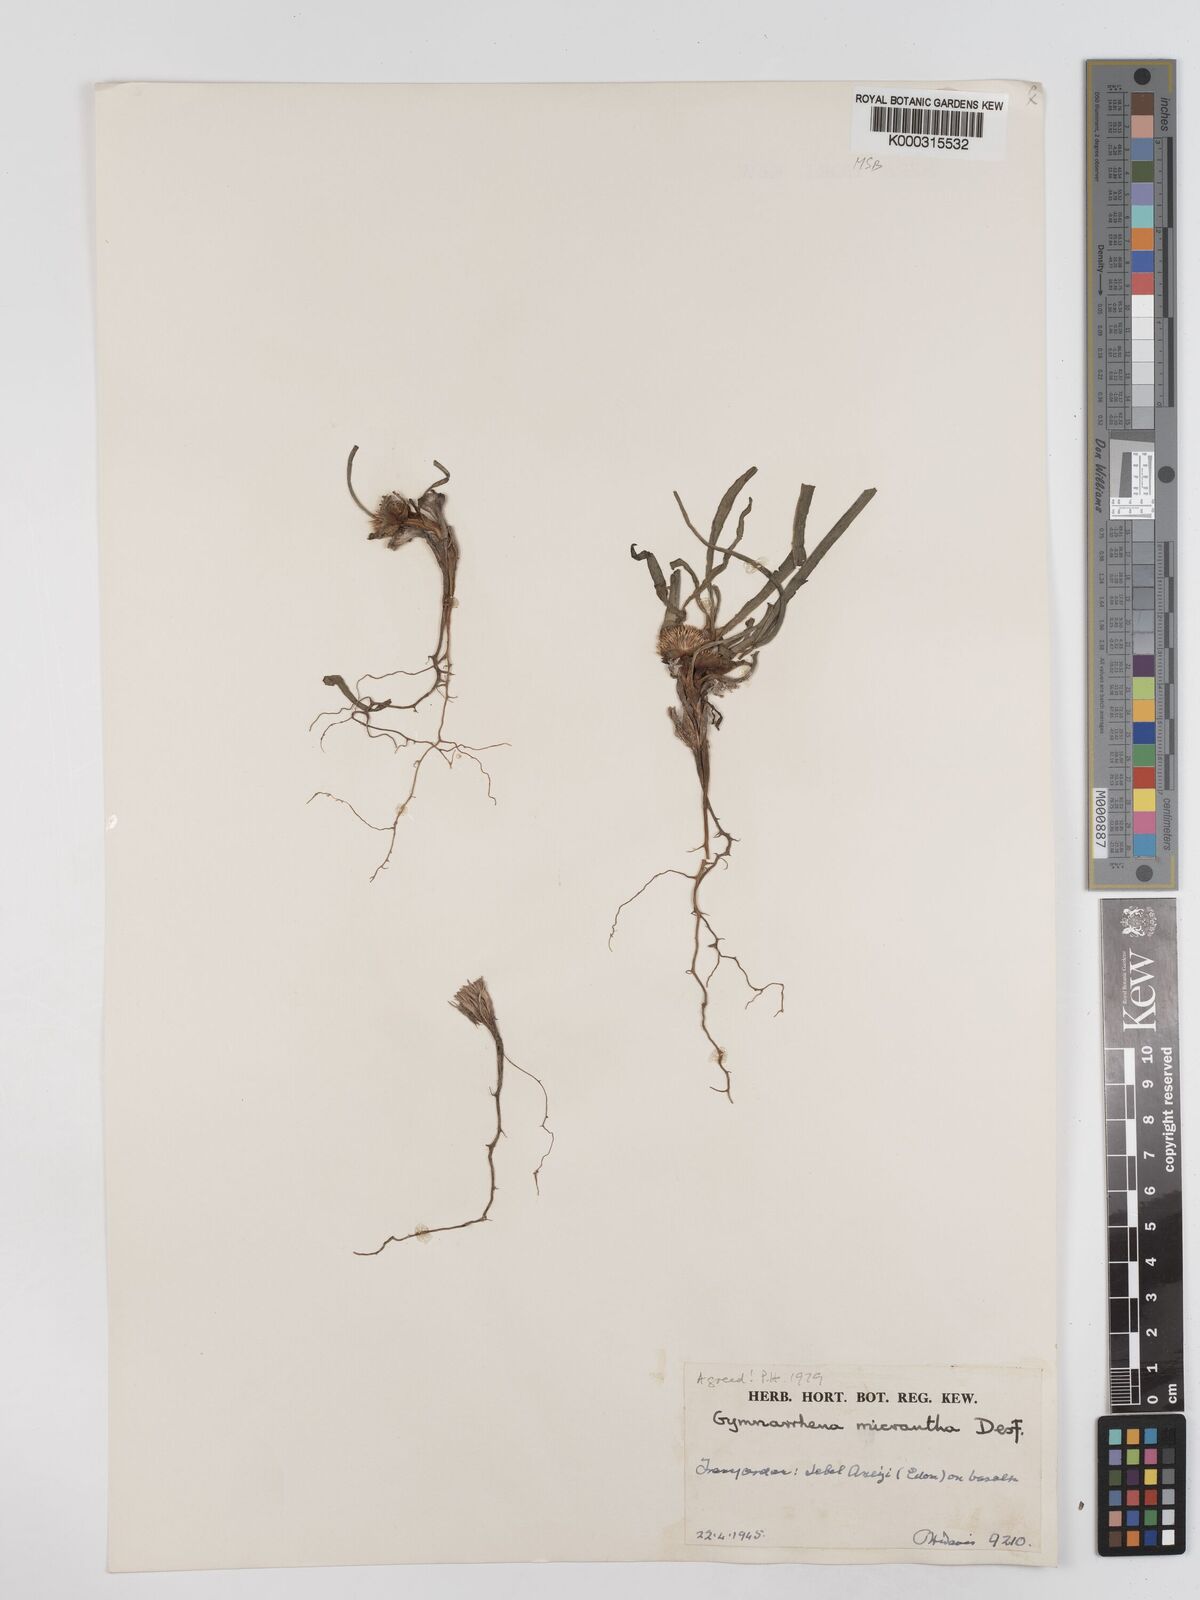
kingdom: Plantae
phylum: Tracheophyta
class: Magnoliopsida
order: Asterales
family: Asteraceae
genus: Gymnarrhena
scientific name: Gymnarrhena micrantha
